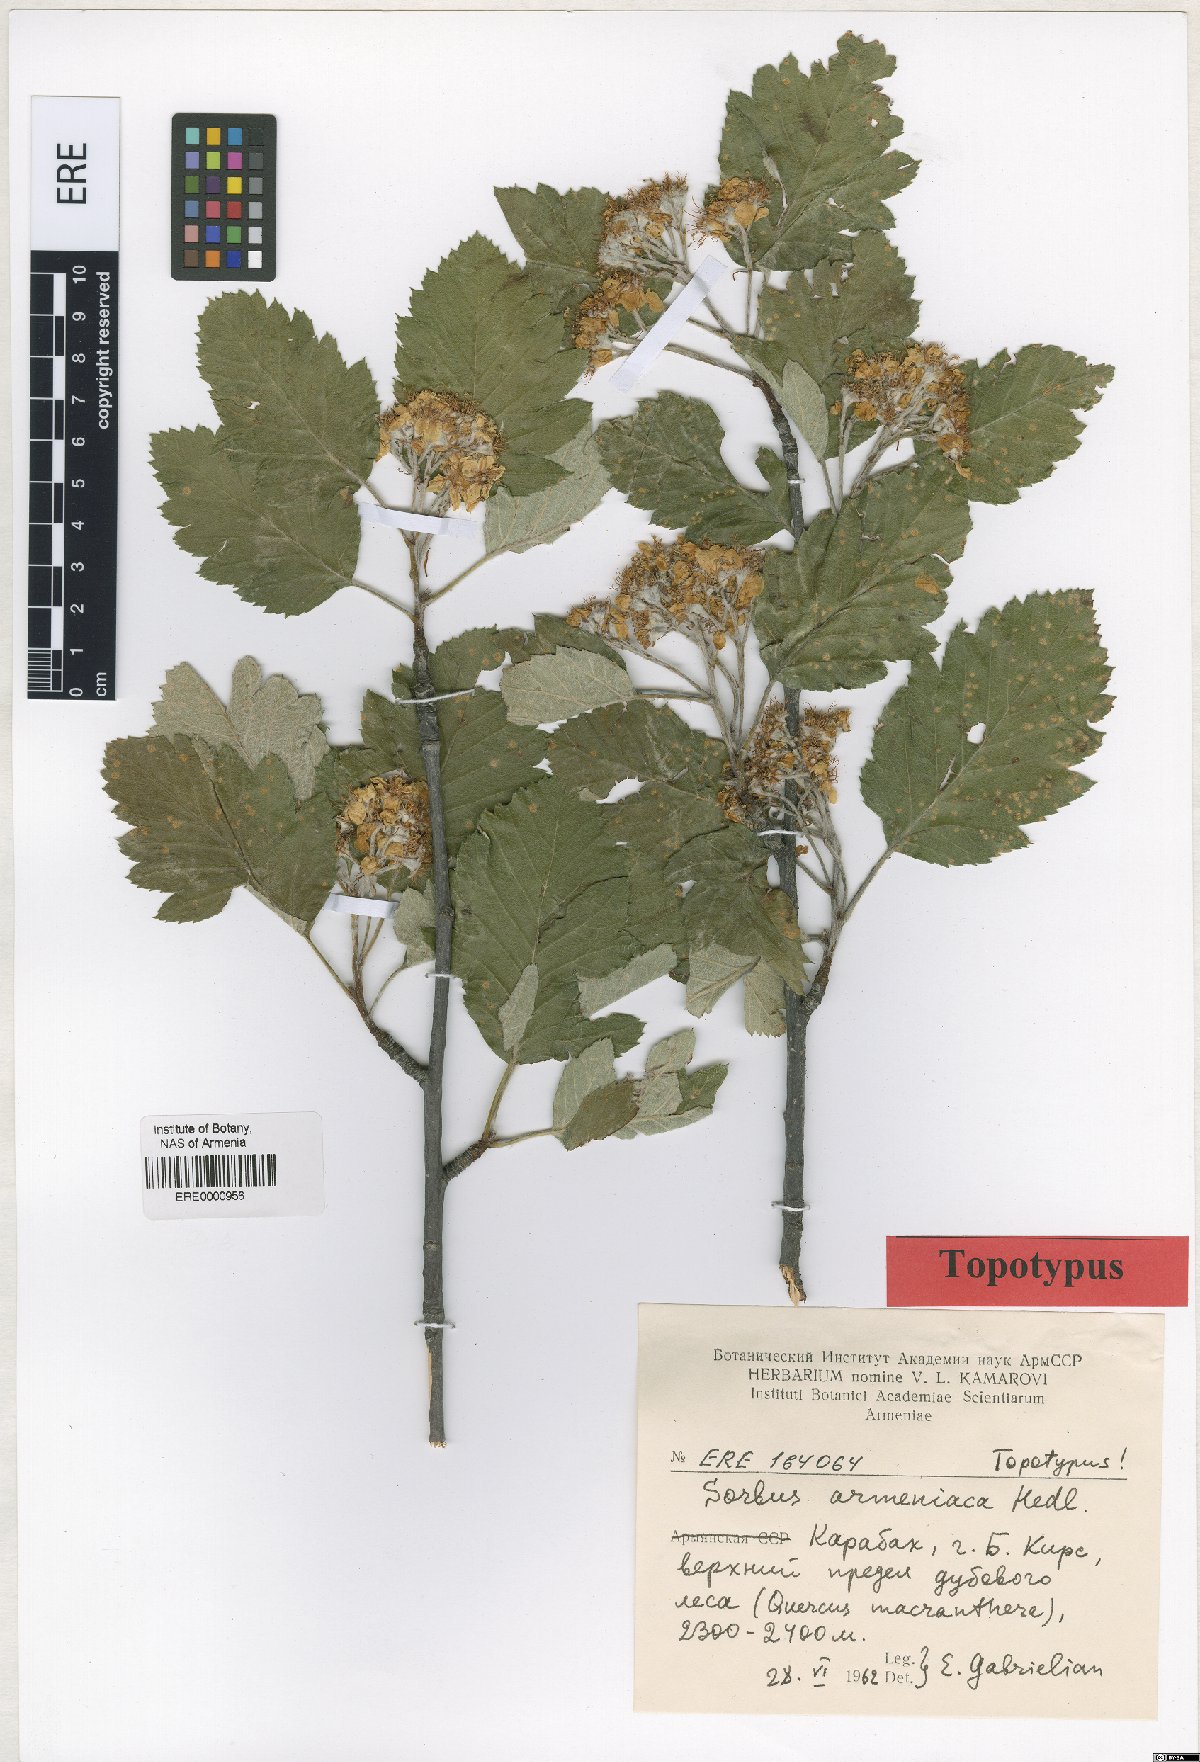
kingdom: Plantae
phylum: Tracheophyta
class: Magnoliopsida
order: Rosales
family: Rosaceae
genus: Hedlundia
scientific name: Hedlundia armeniaca
